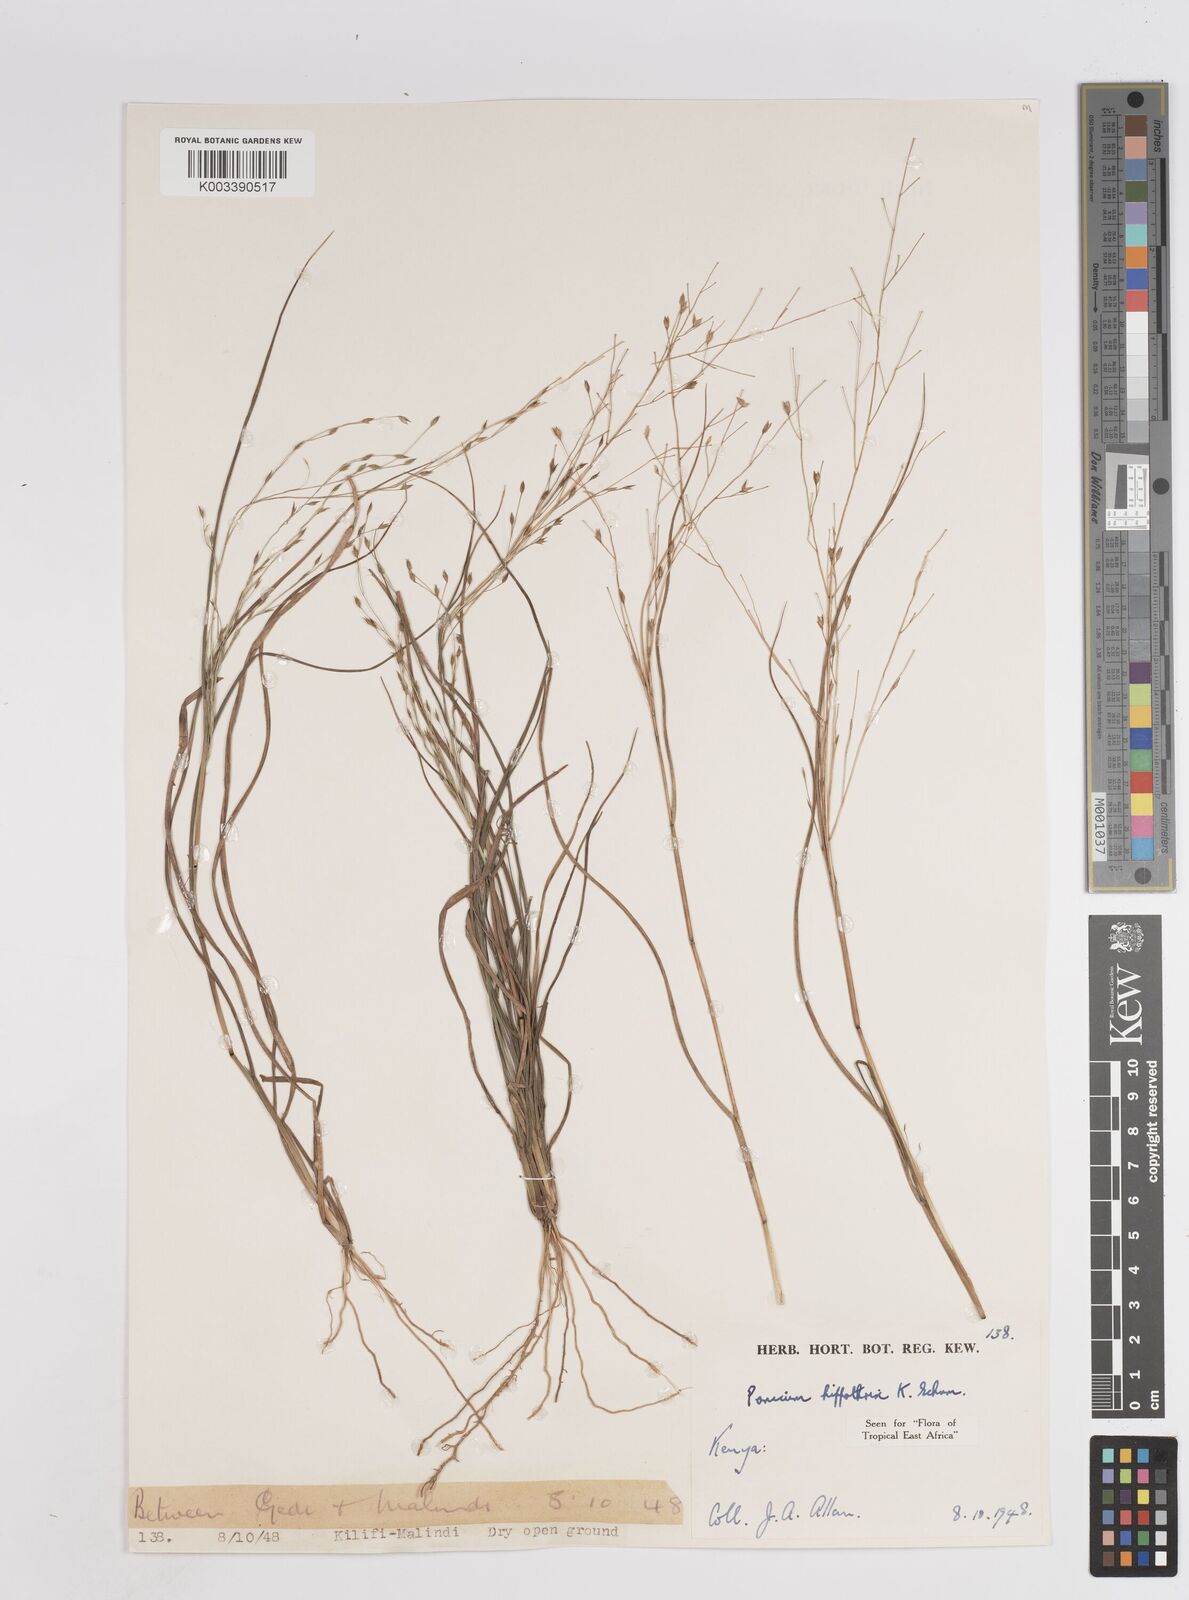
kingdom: Plantae
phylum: Tracheophyta
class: Liliopsida
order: Poales
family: Poaceae
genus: Panicum
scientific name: Panicum hippothrix
